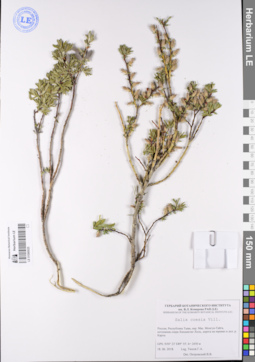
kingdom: Plantae
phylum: Tracheophyta
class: Magnoliopsida
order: Malpighiales
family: Salicaceae
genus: Salix
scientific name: Salix caesia
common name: Blue willow
